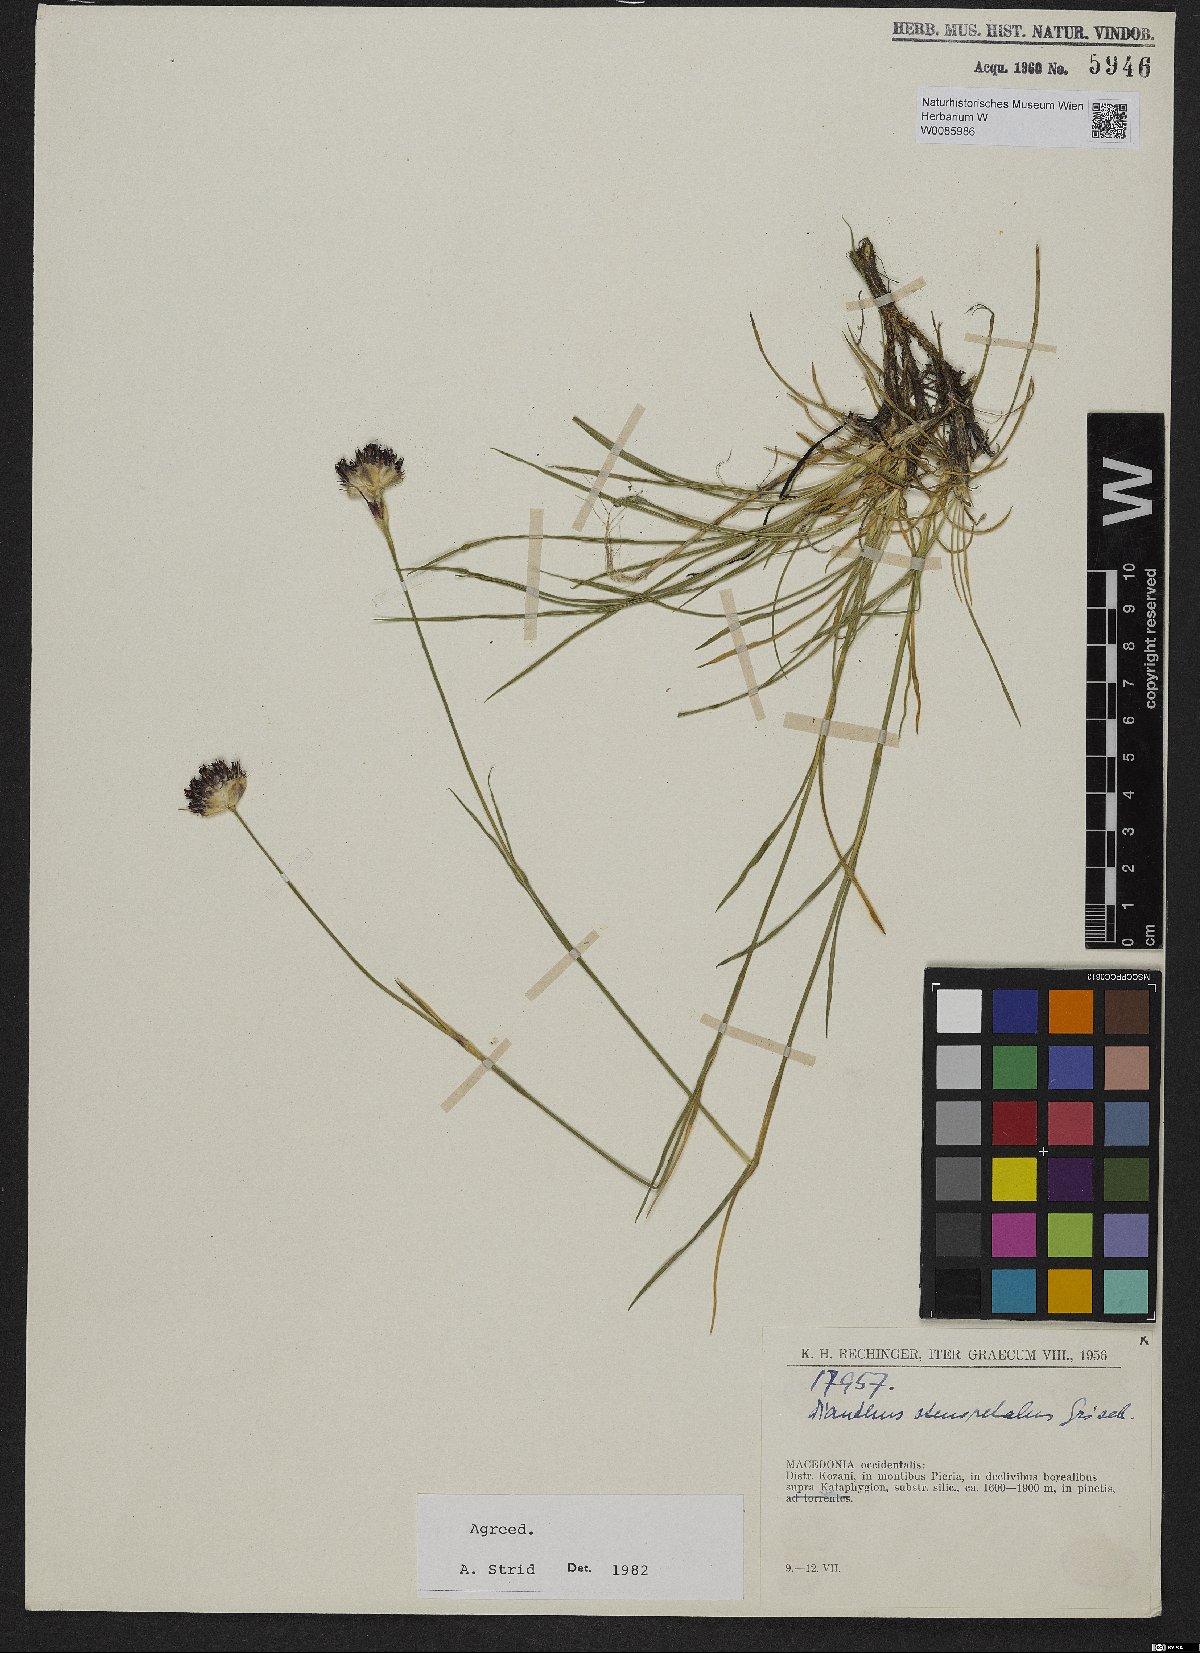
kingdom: Plantae
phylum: Tracheophyta
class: Magnoliopsida
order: Caryophyllales
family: Caryophyllaceae
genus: Dianthus
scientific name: Dianthus stenopetalus
